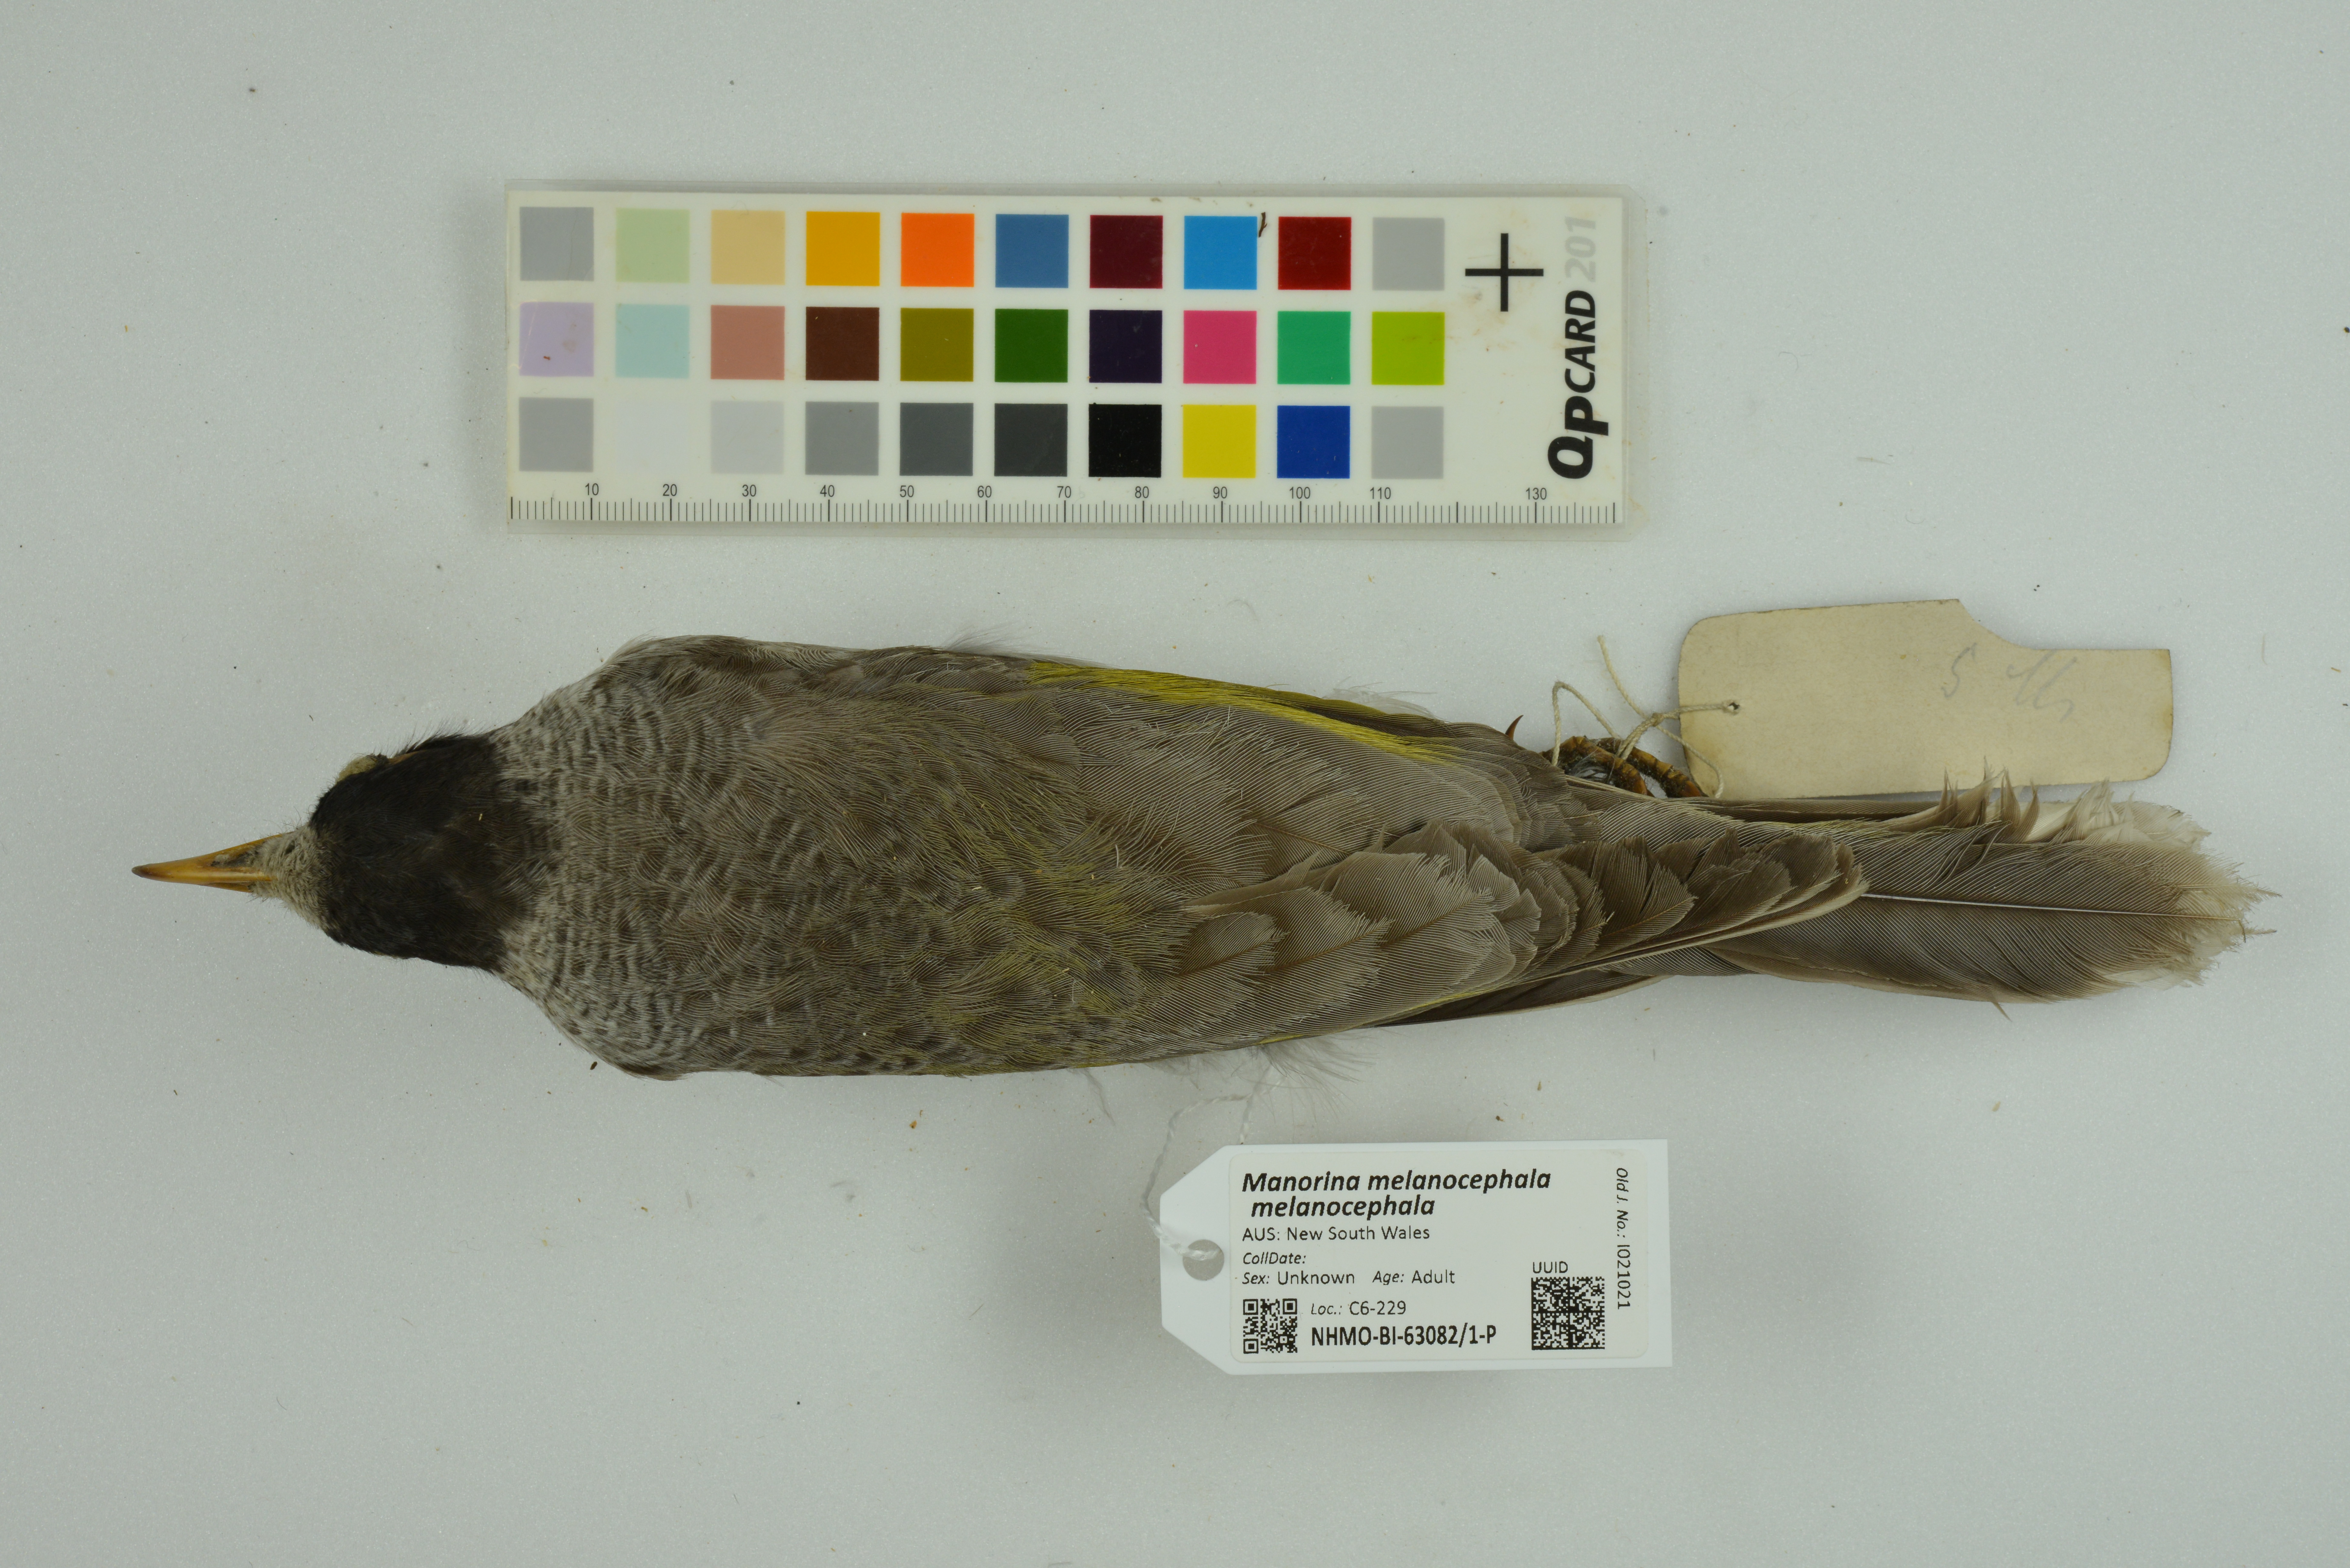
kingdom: Animalia
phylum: Chordata
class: Aves
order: Passeriformes
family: Meliphagidae
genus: Manorina
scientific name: Manorina melanocephala
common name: Noisy miner
